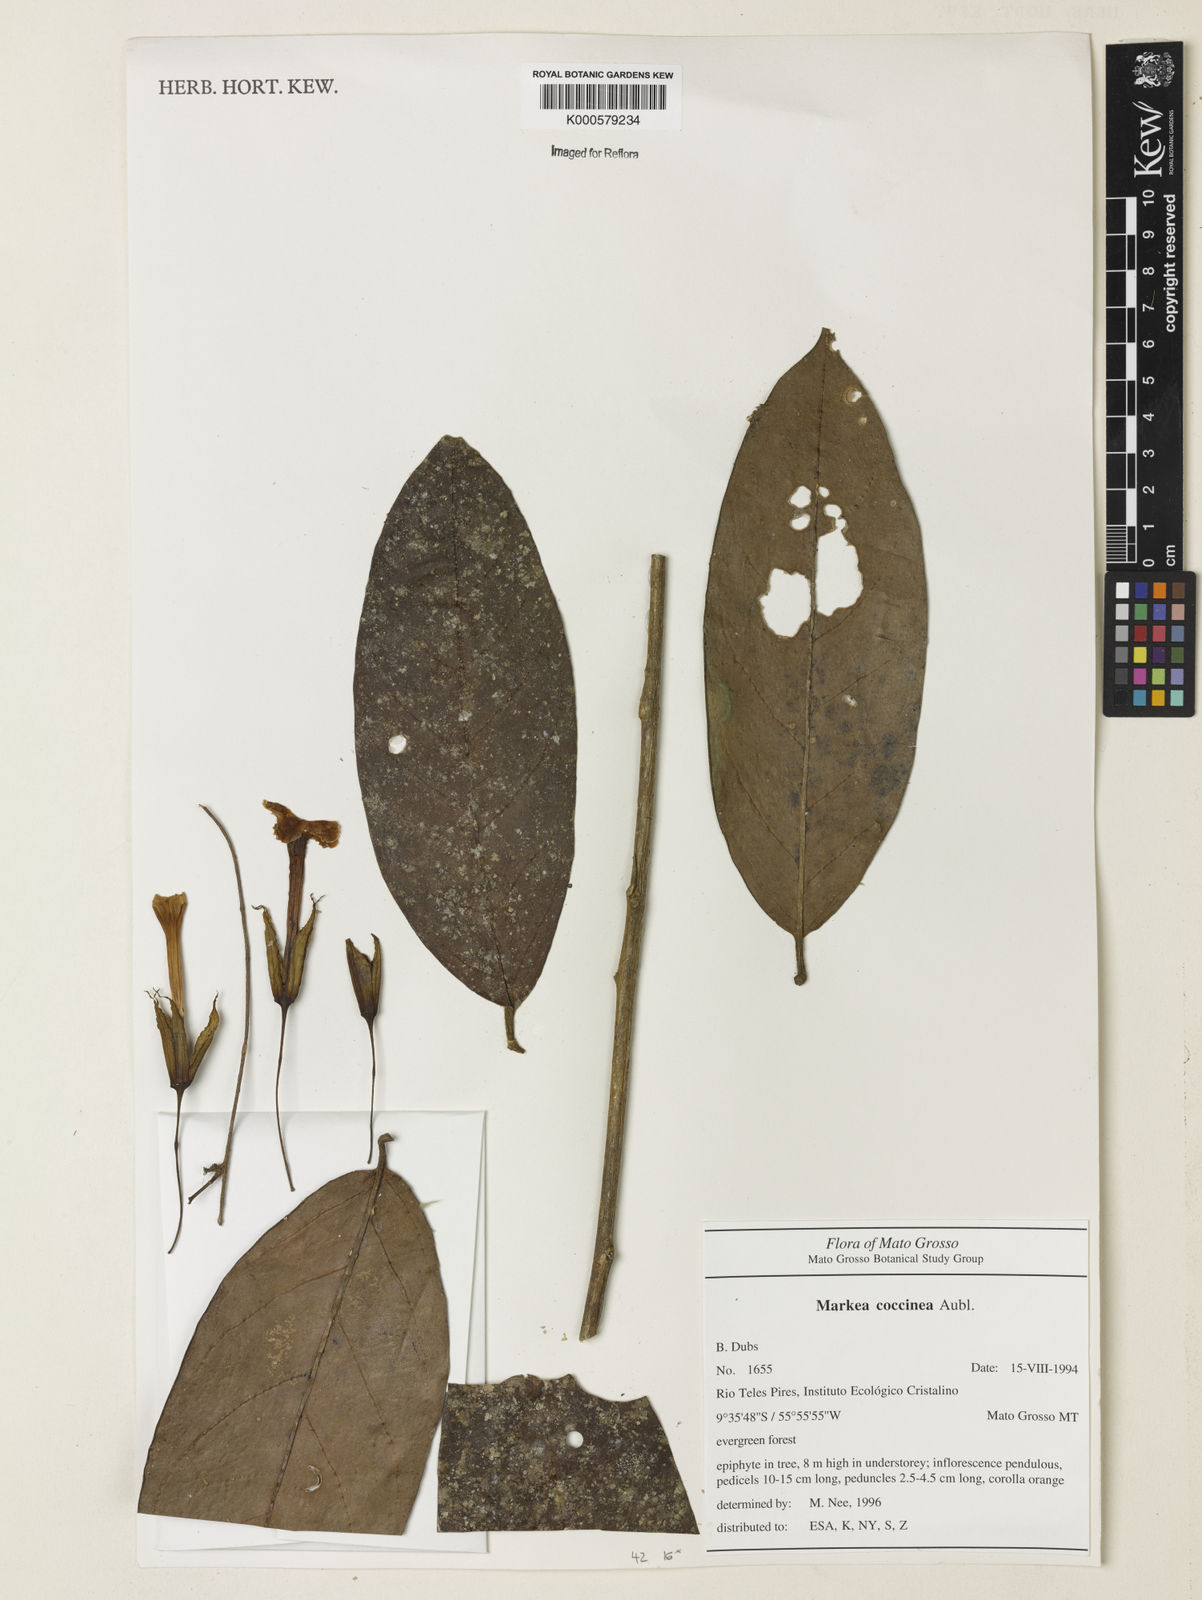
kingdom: Plantae
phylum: Tracheophyta
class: Magnoliopsida
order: Solanales
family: Solanaceae
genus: Markea
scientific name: Markea coccinea
